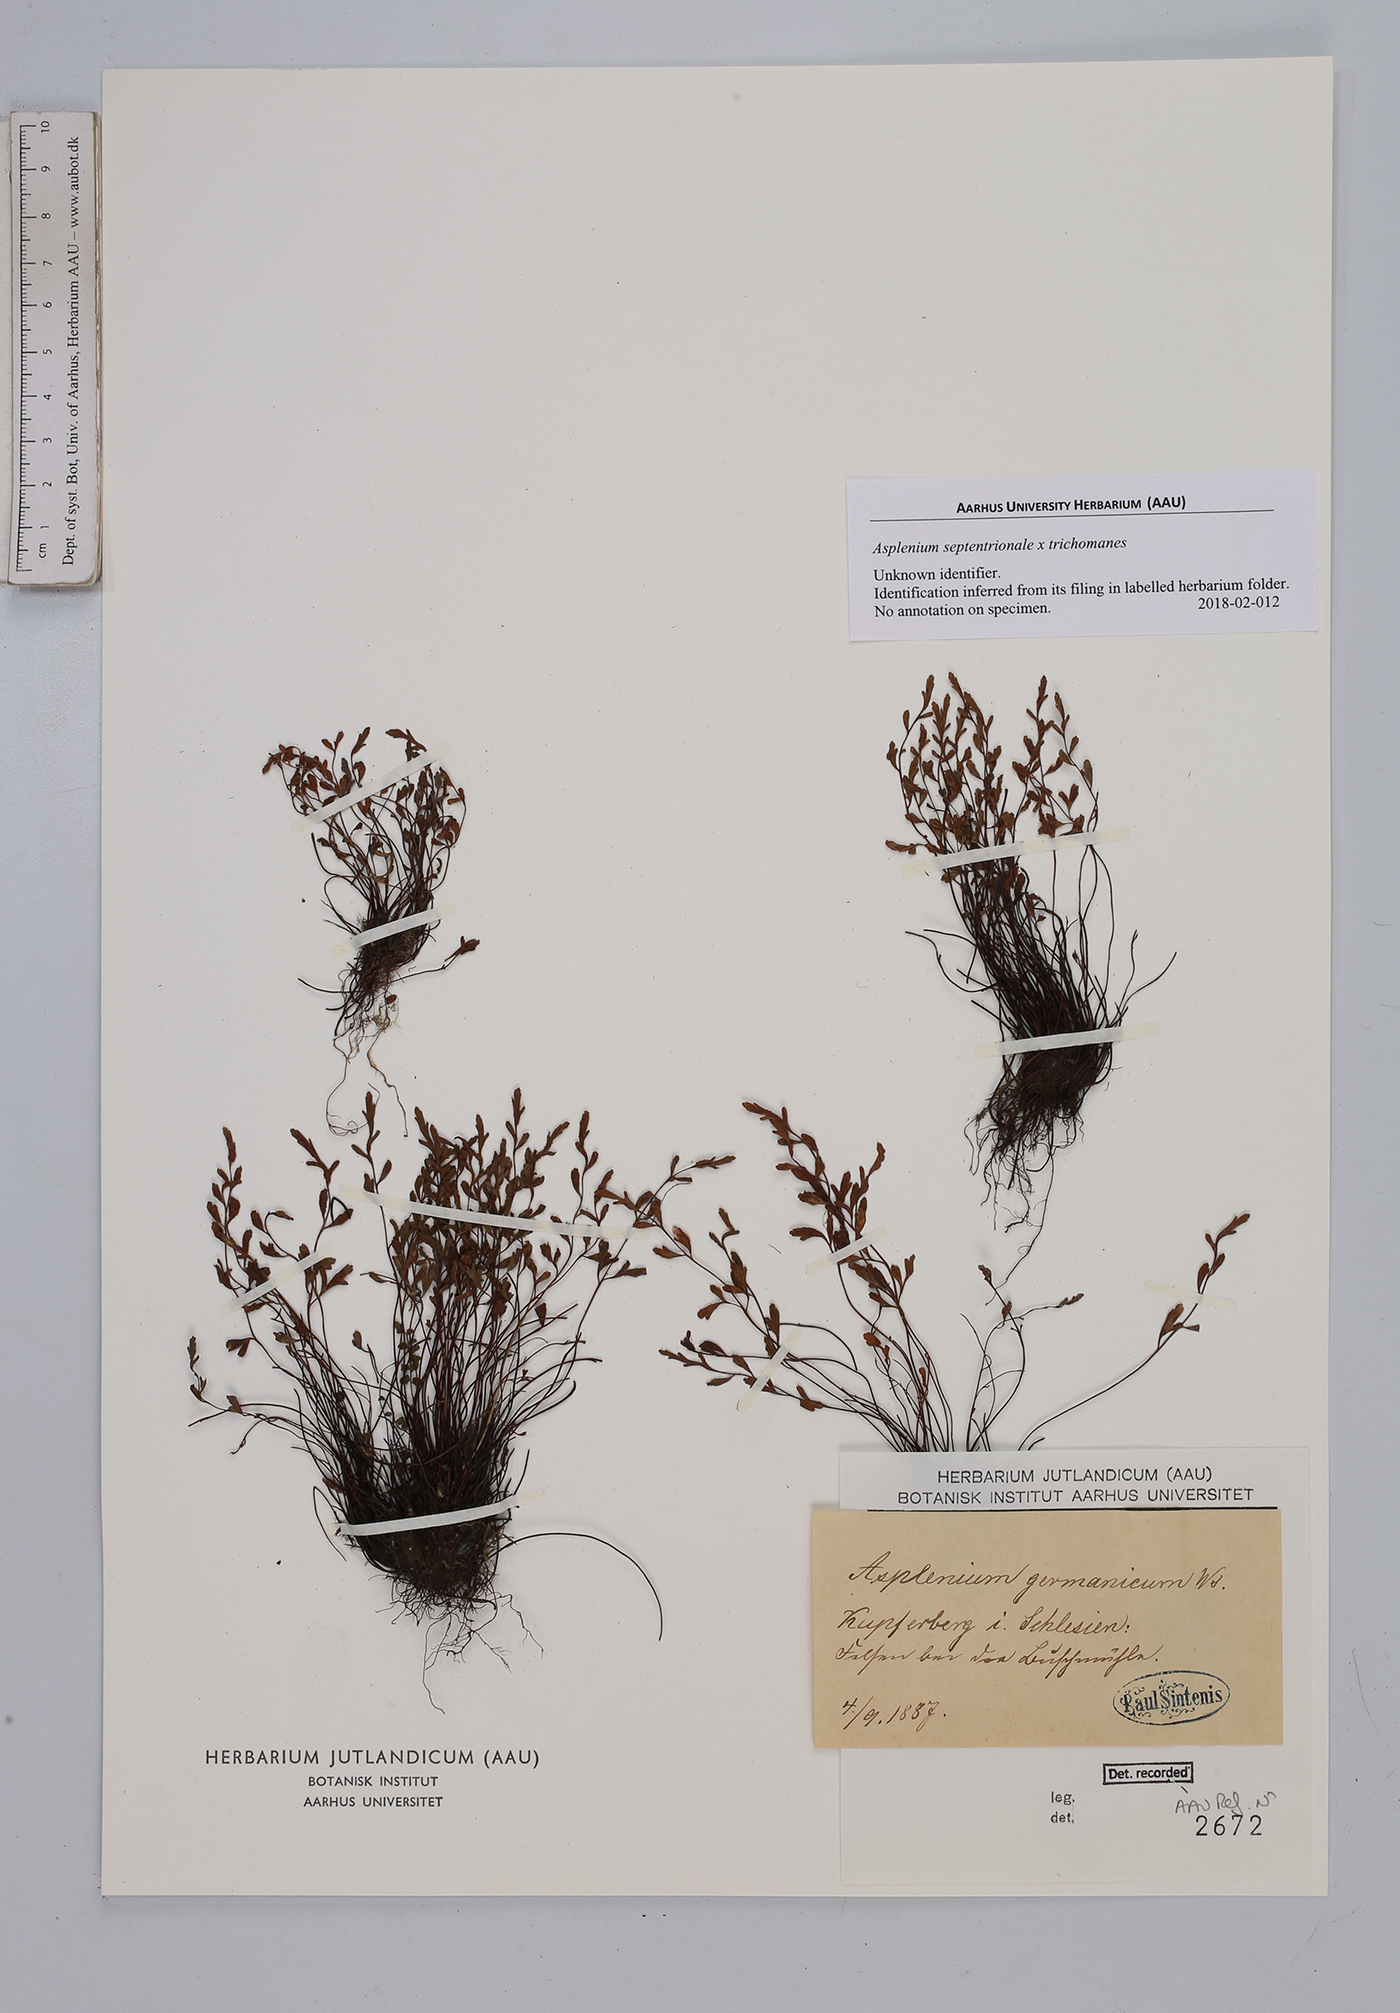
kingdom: Plantae
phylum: Tracheophyta
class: Polypodiopsida
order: Polypodiales
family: Aspleniaceae
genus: Asplenium
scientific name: Asplenium
